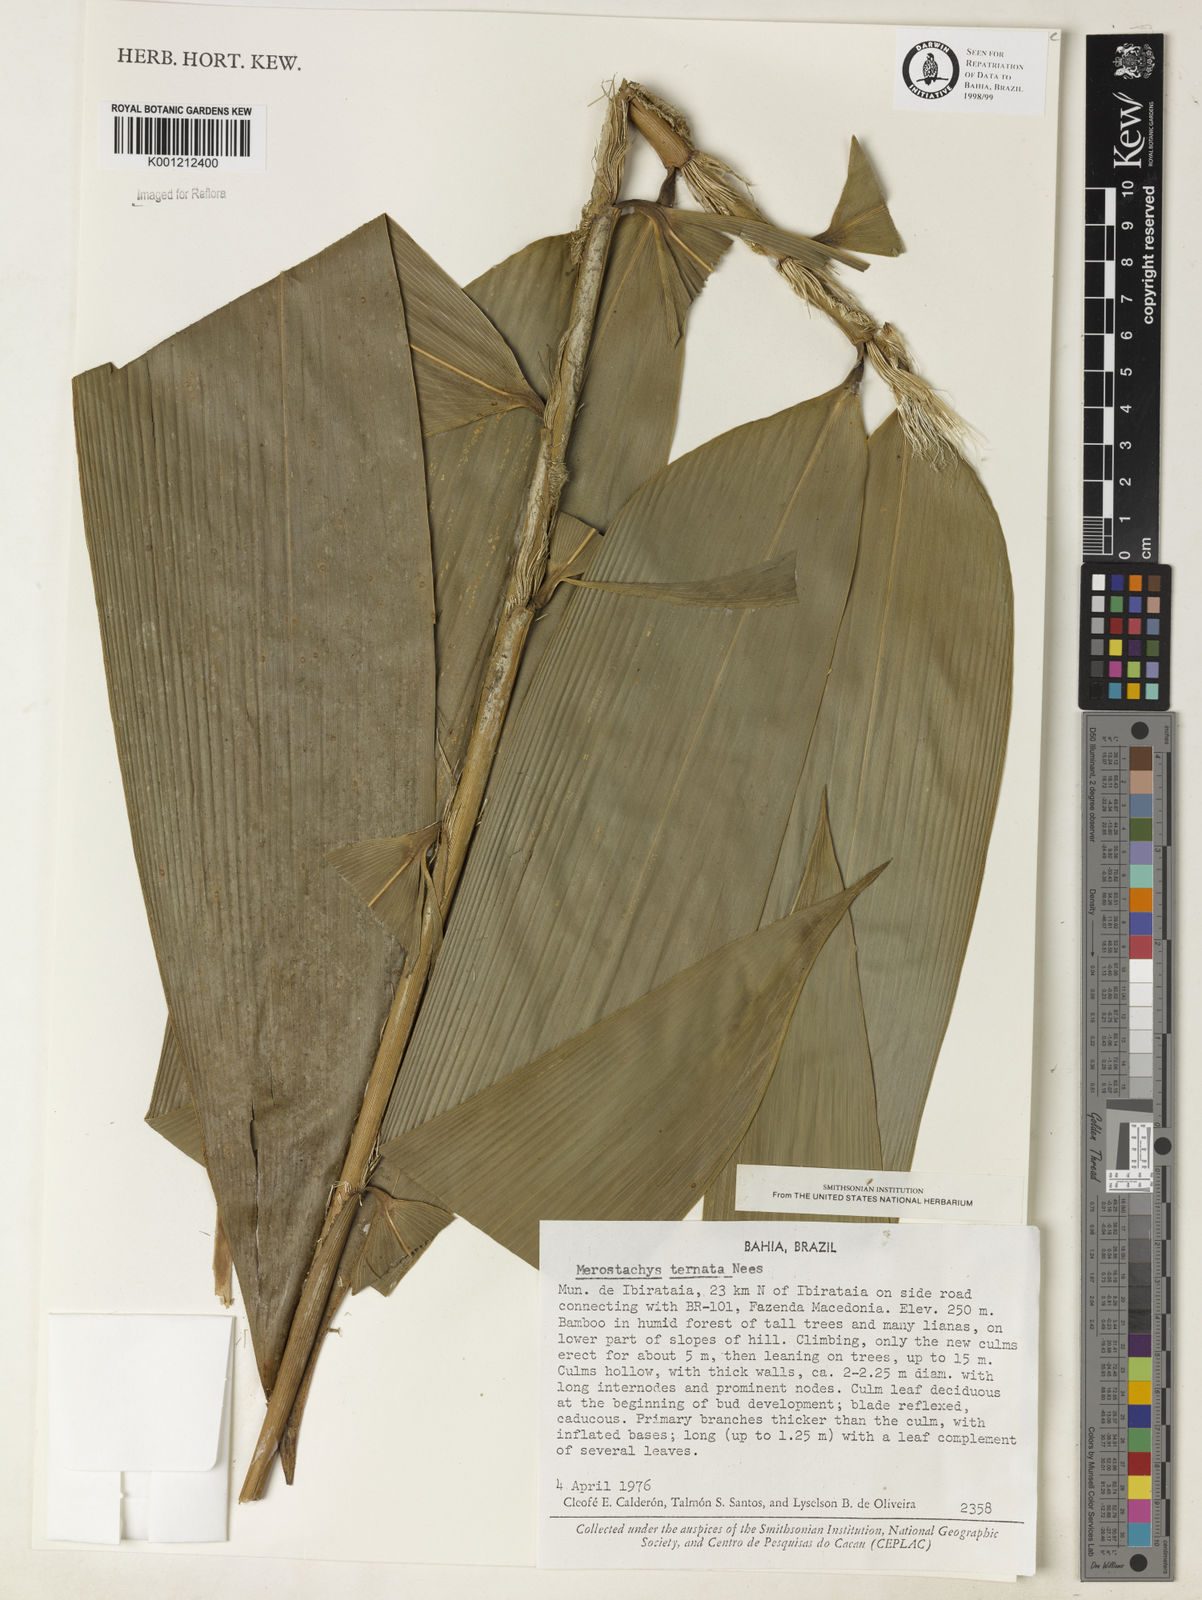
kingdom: Plantae
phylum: Tracheophyta
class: Liliopsida
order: Poales
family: Poaceae
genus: Merostachys
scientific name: Merostachys ternata
